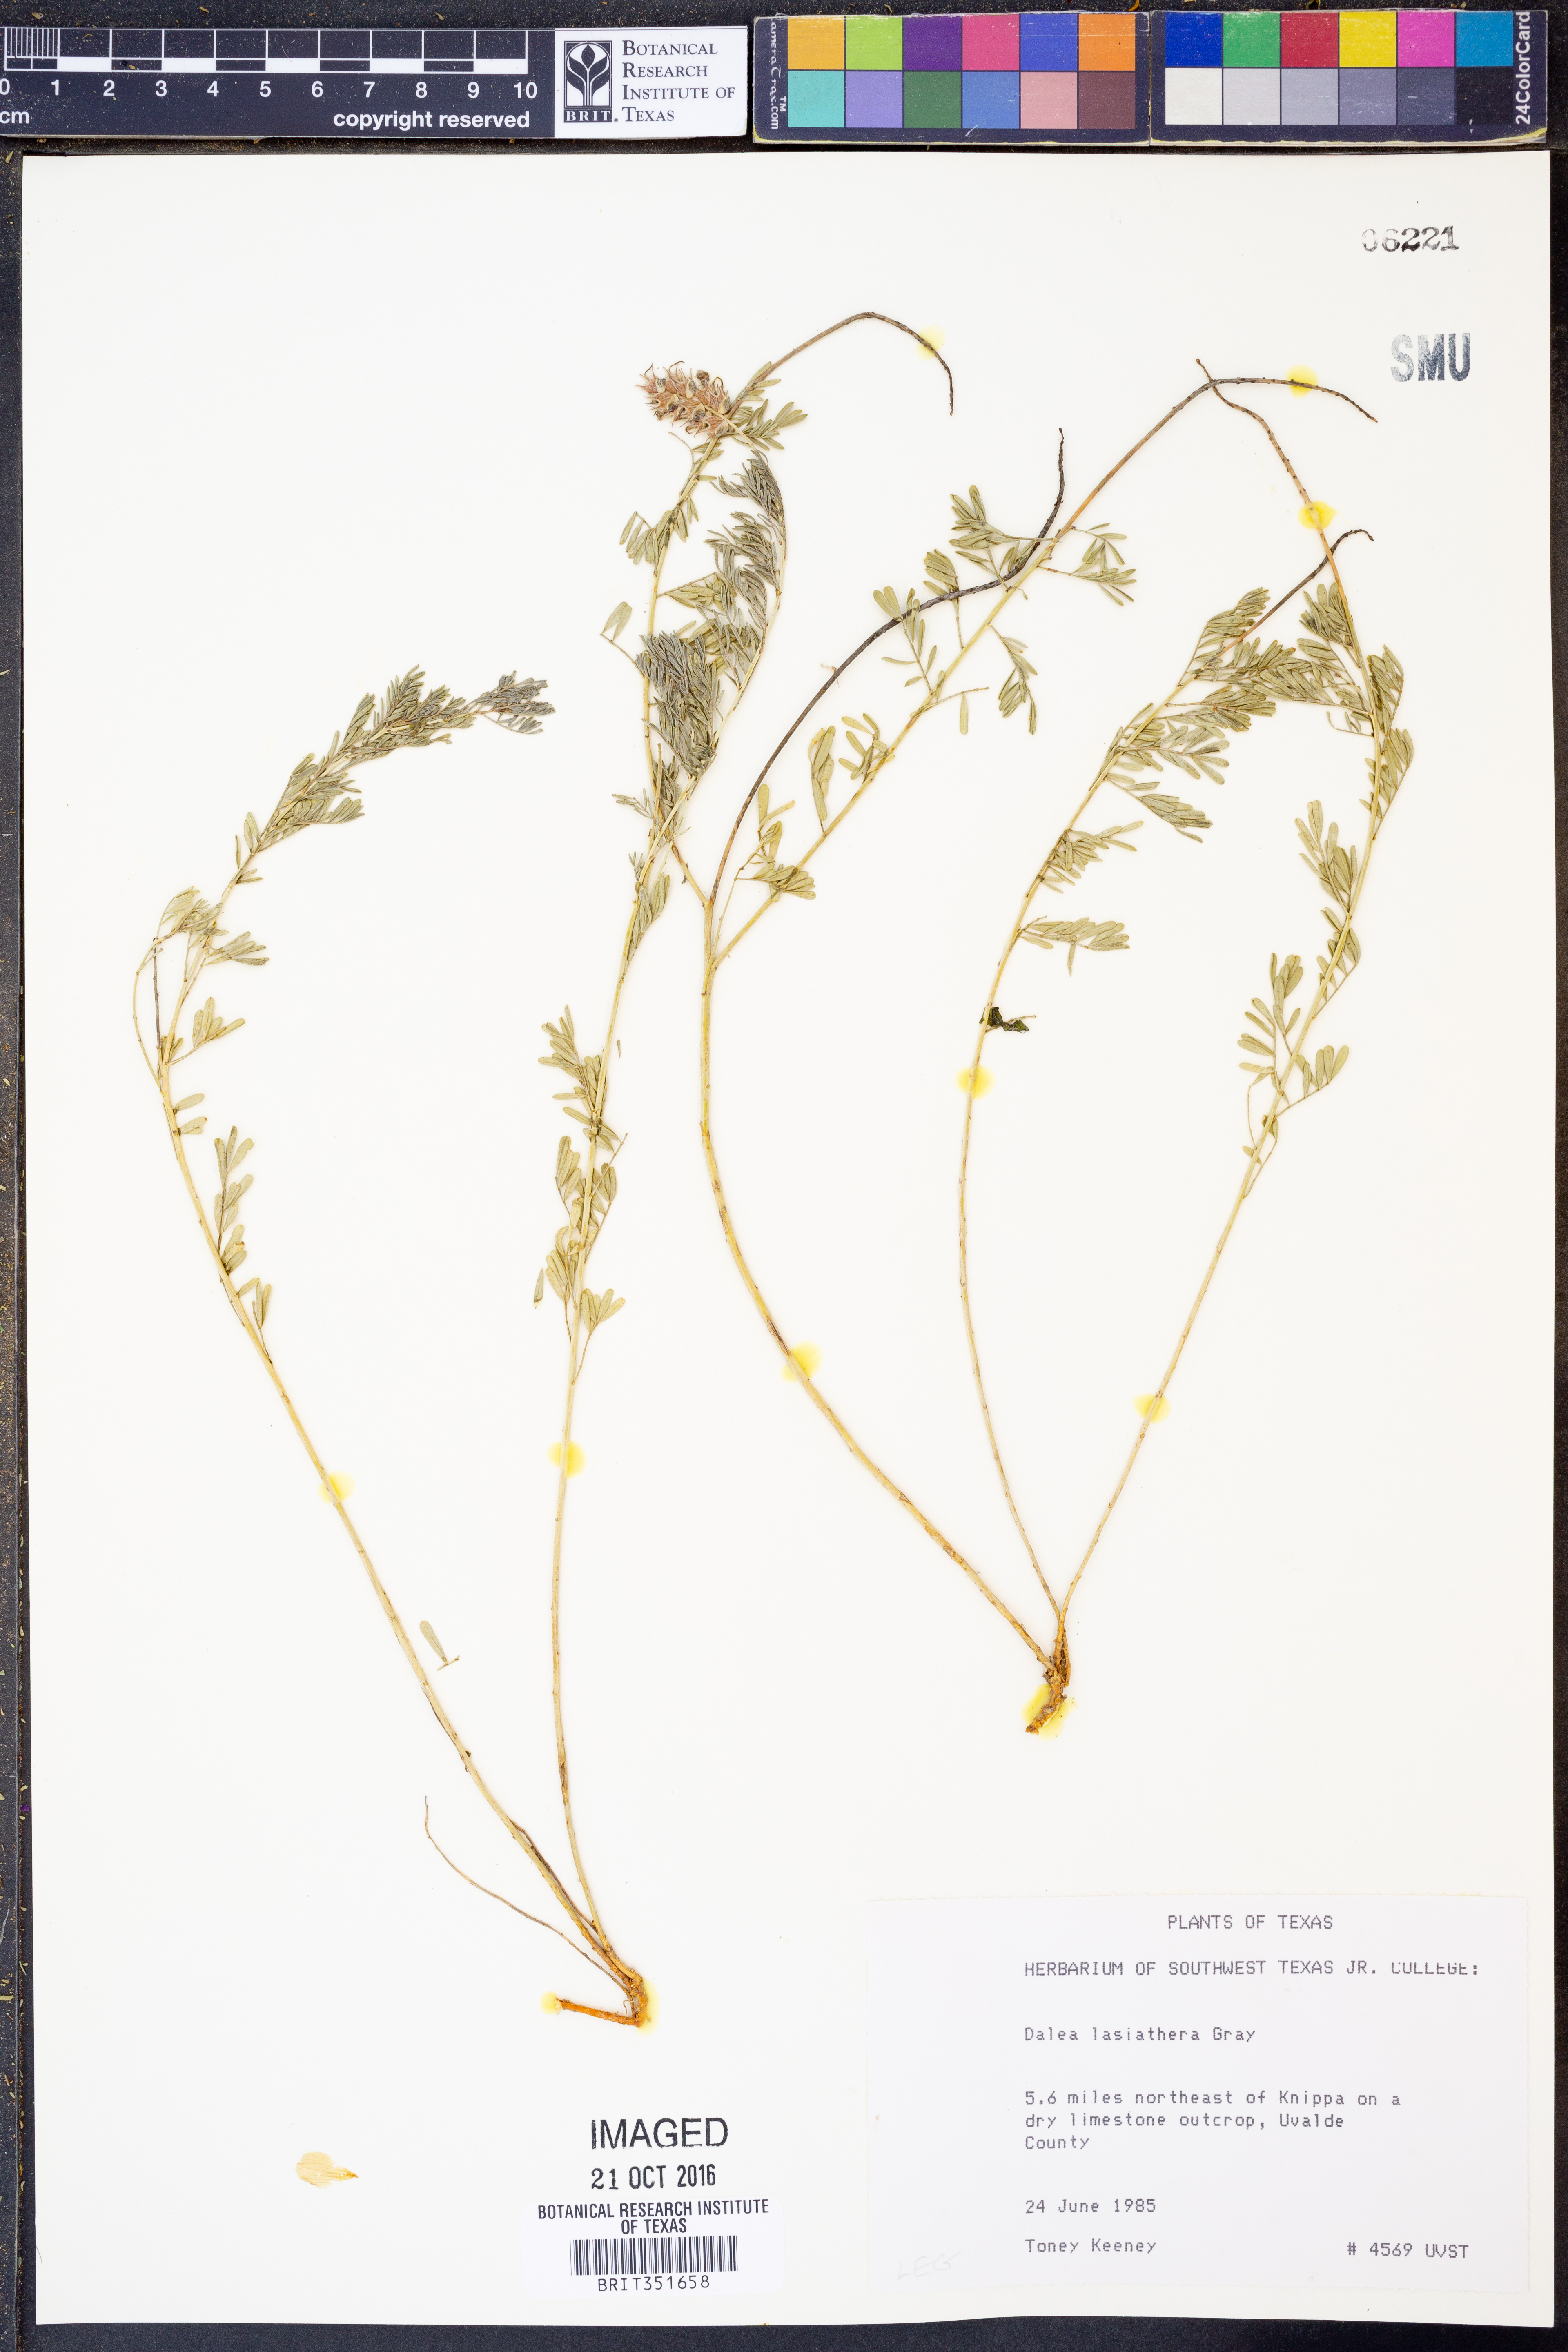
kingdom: Plantae
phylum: Tracheophyta
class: Magnoliopsida
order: Fabales
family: Fabaceae
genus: Dalea
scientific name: Dalea lasiathera
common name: Purple prairie-clover
